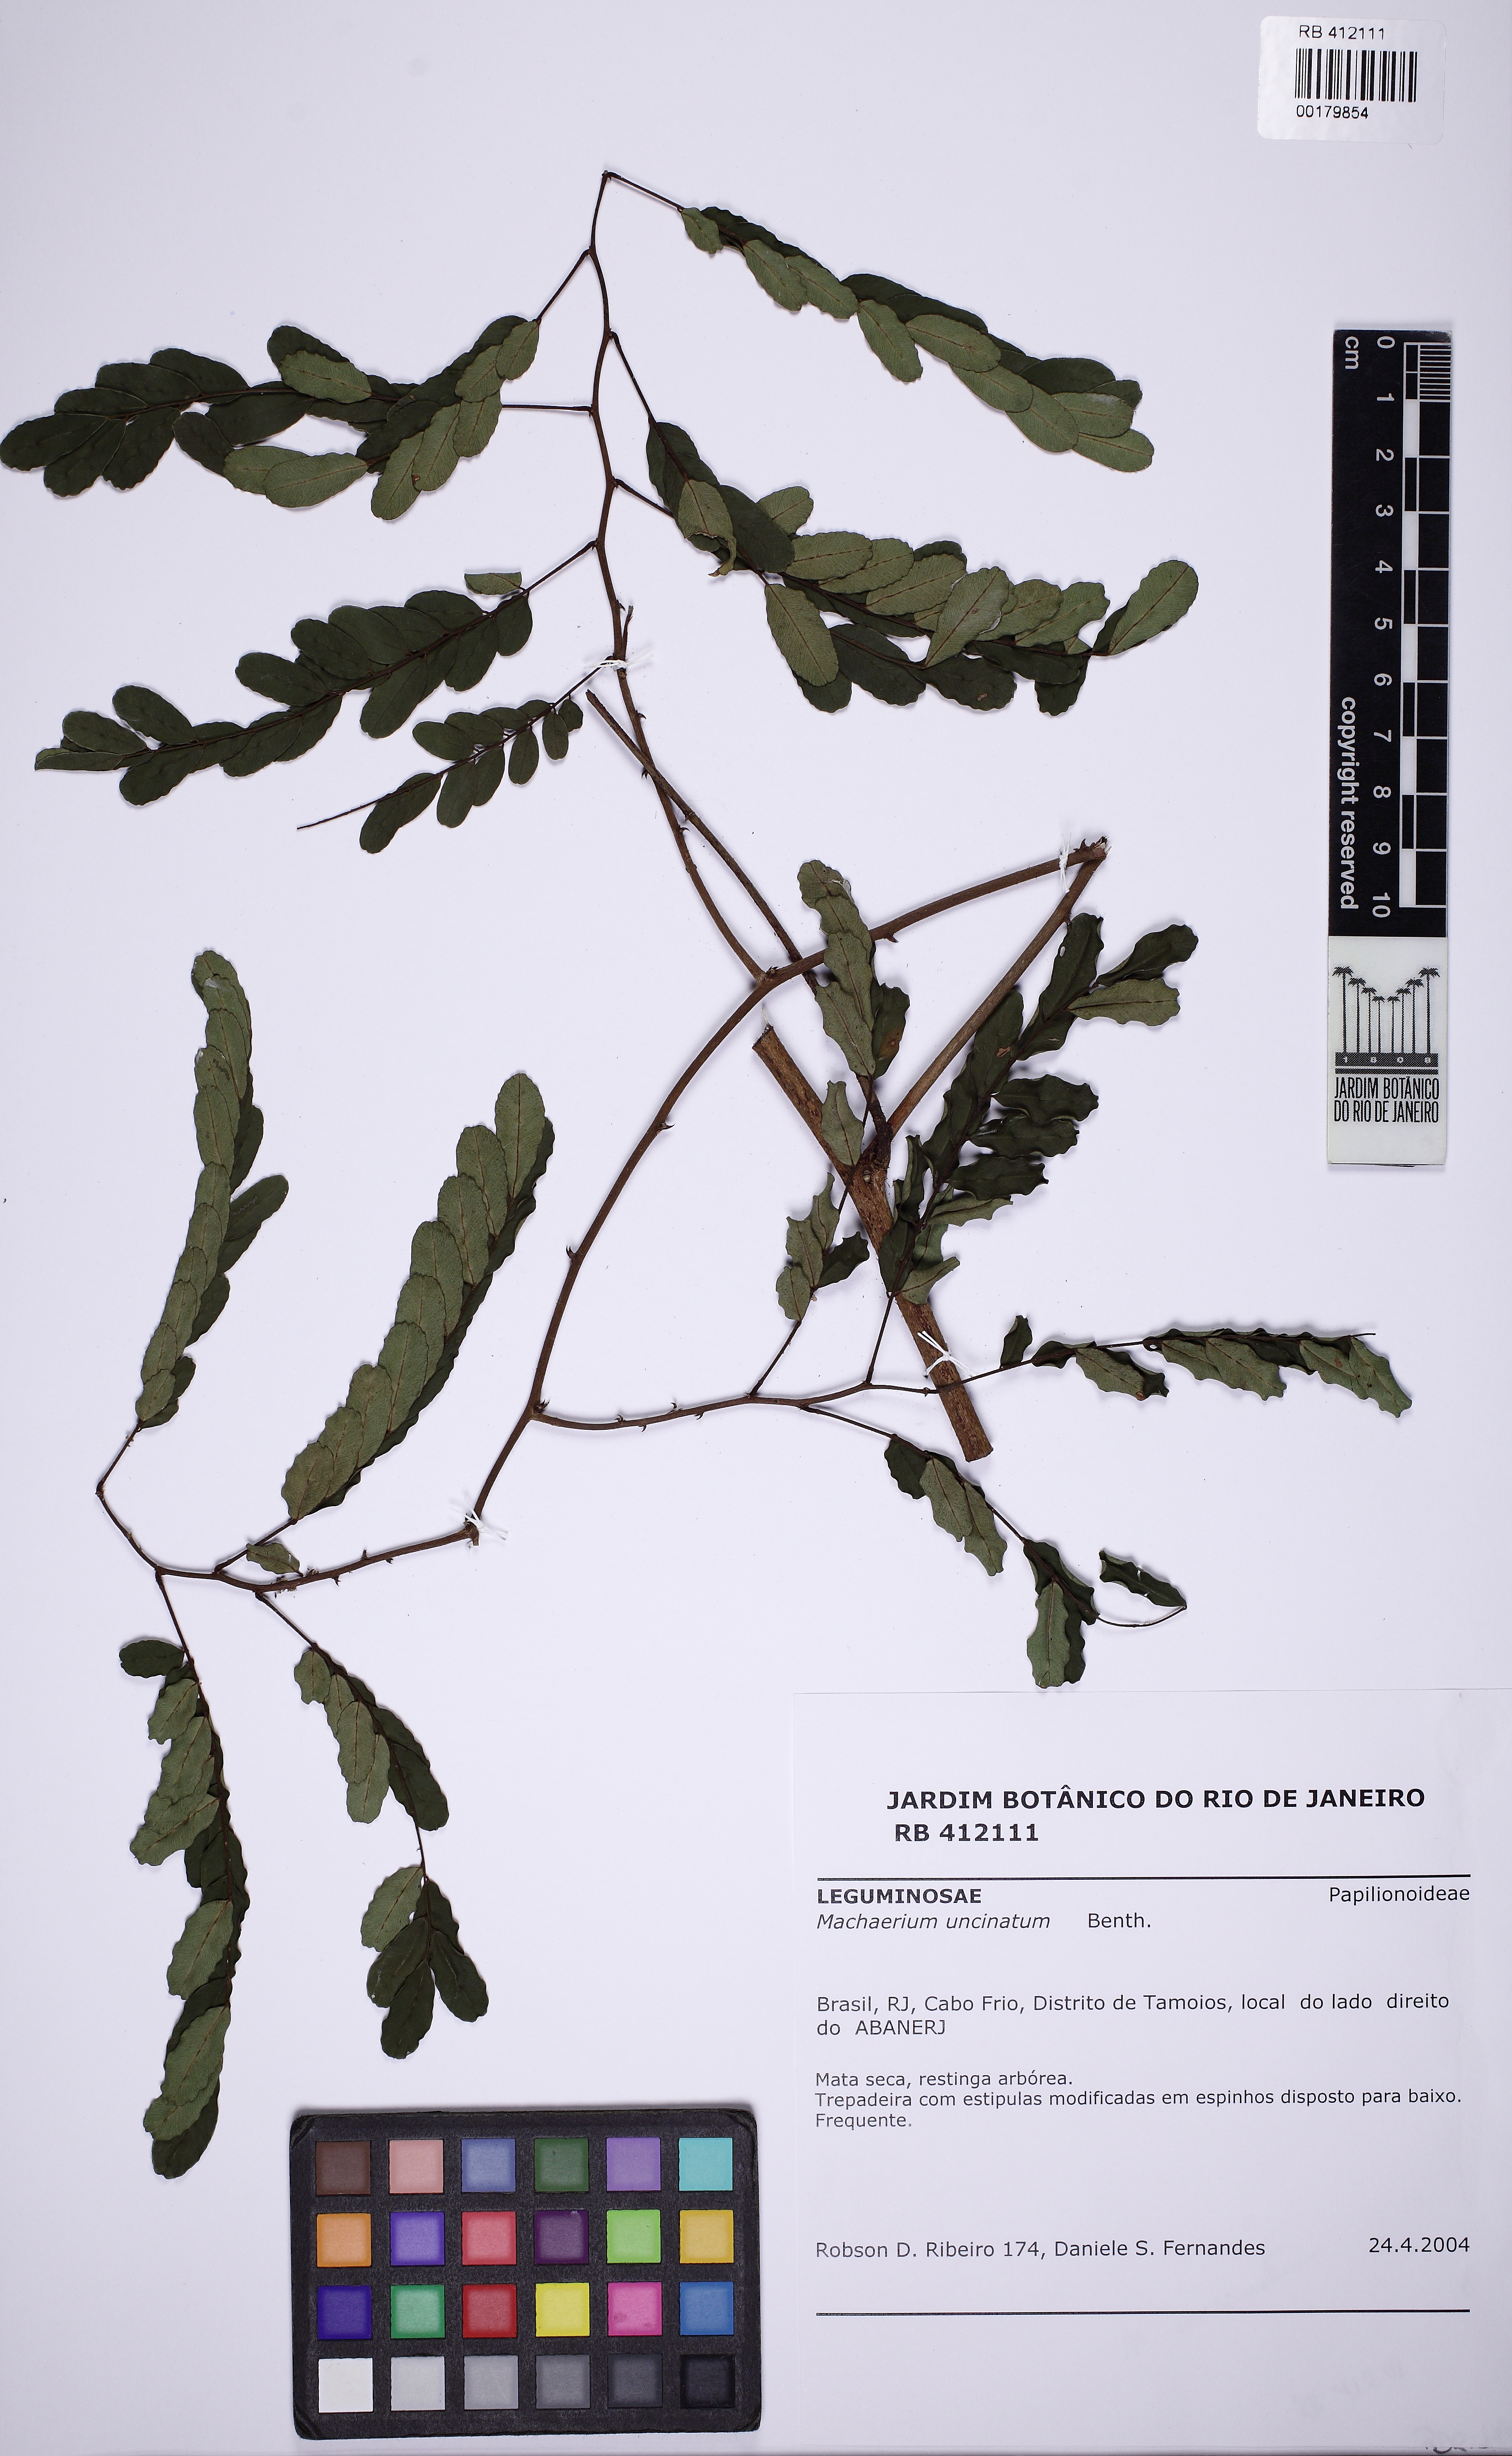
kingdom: Plantae
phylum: Tracheophyta
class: Magnoliopsida
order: Fabales
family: Fabaceae
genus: Machaerium
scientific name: Machaerium uncinatum
